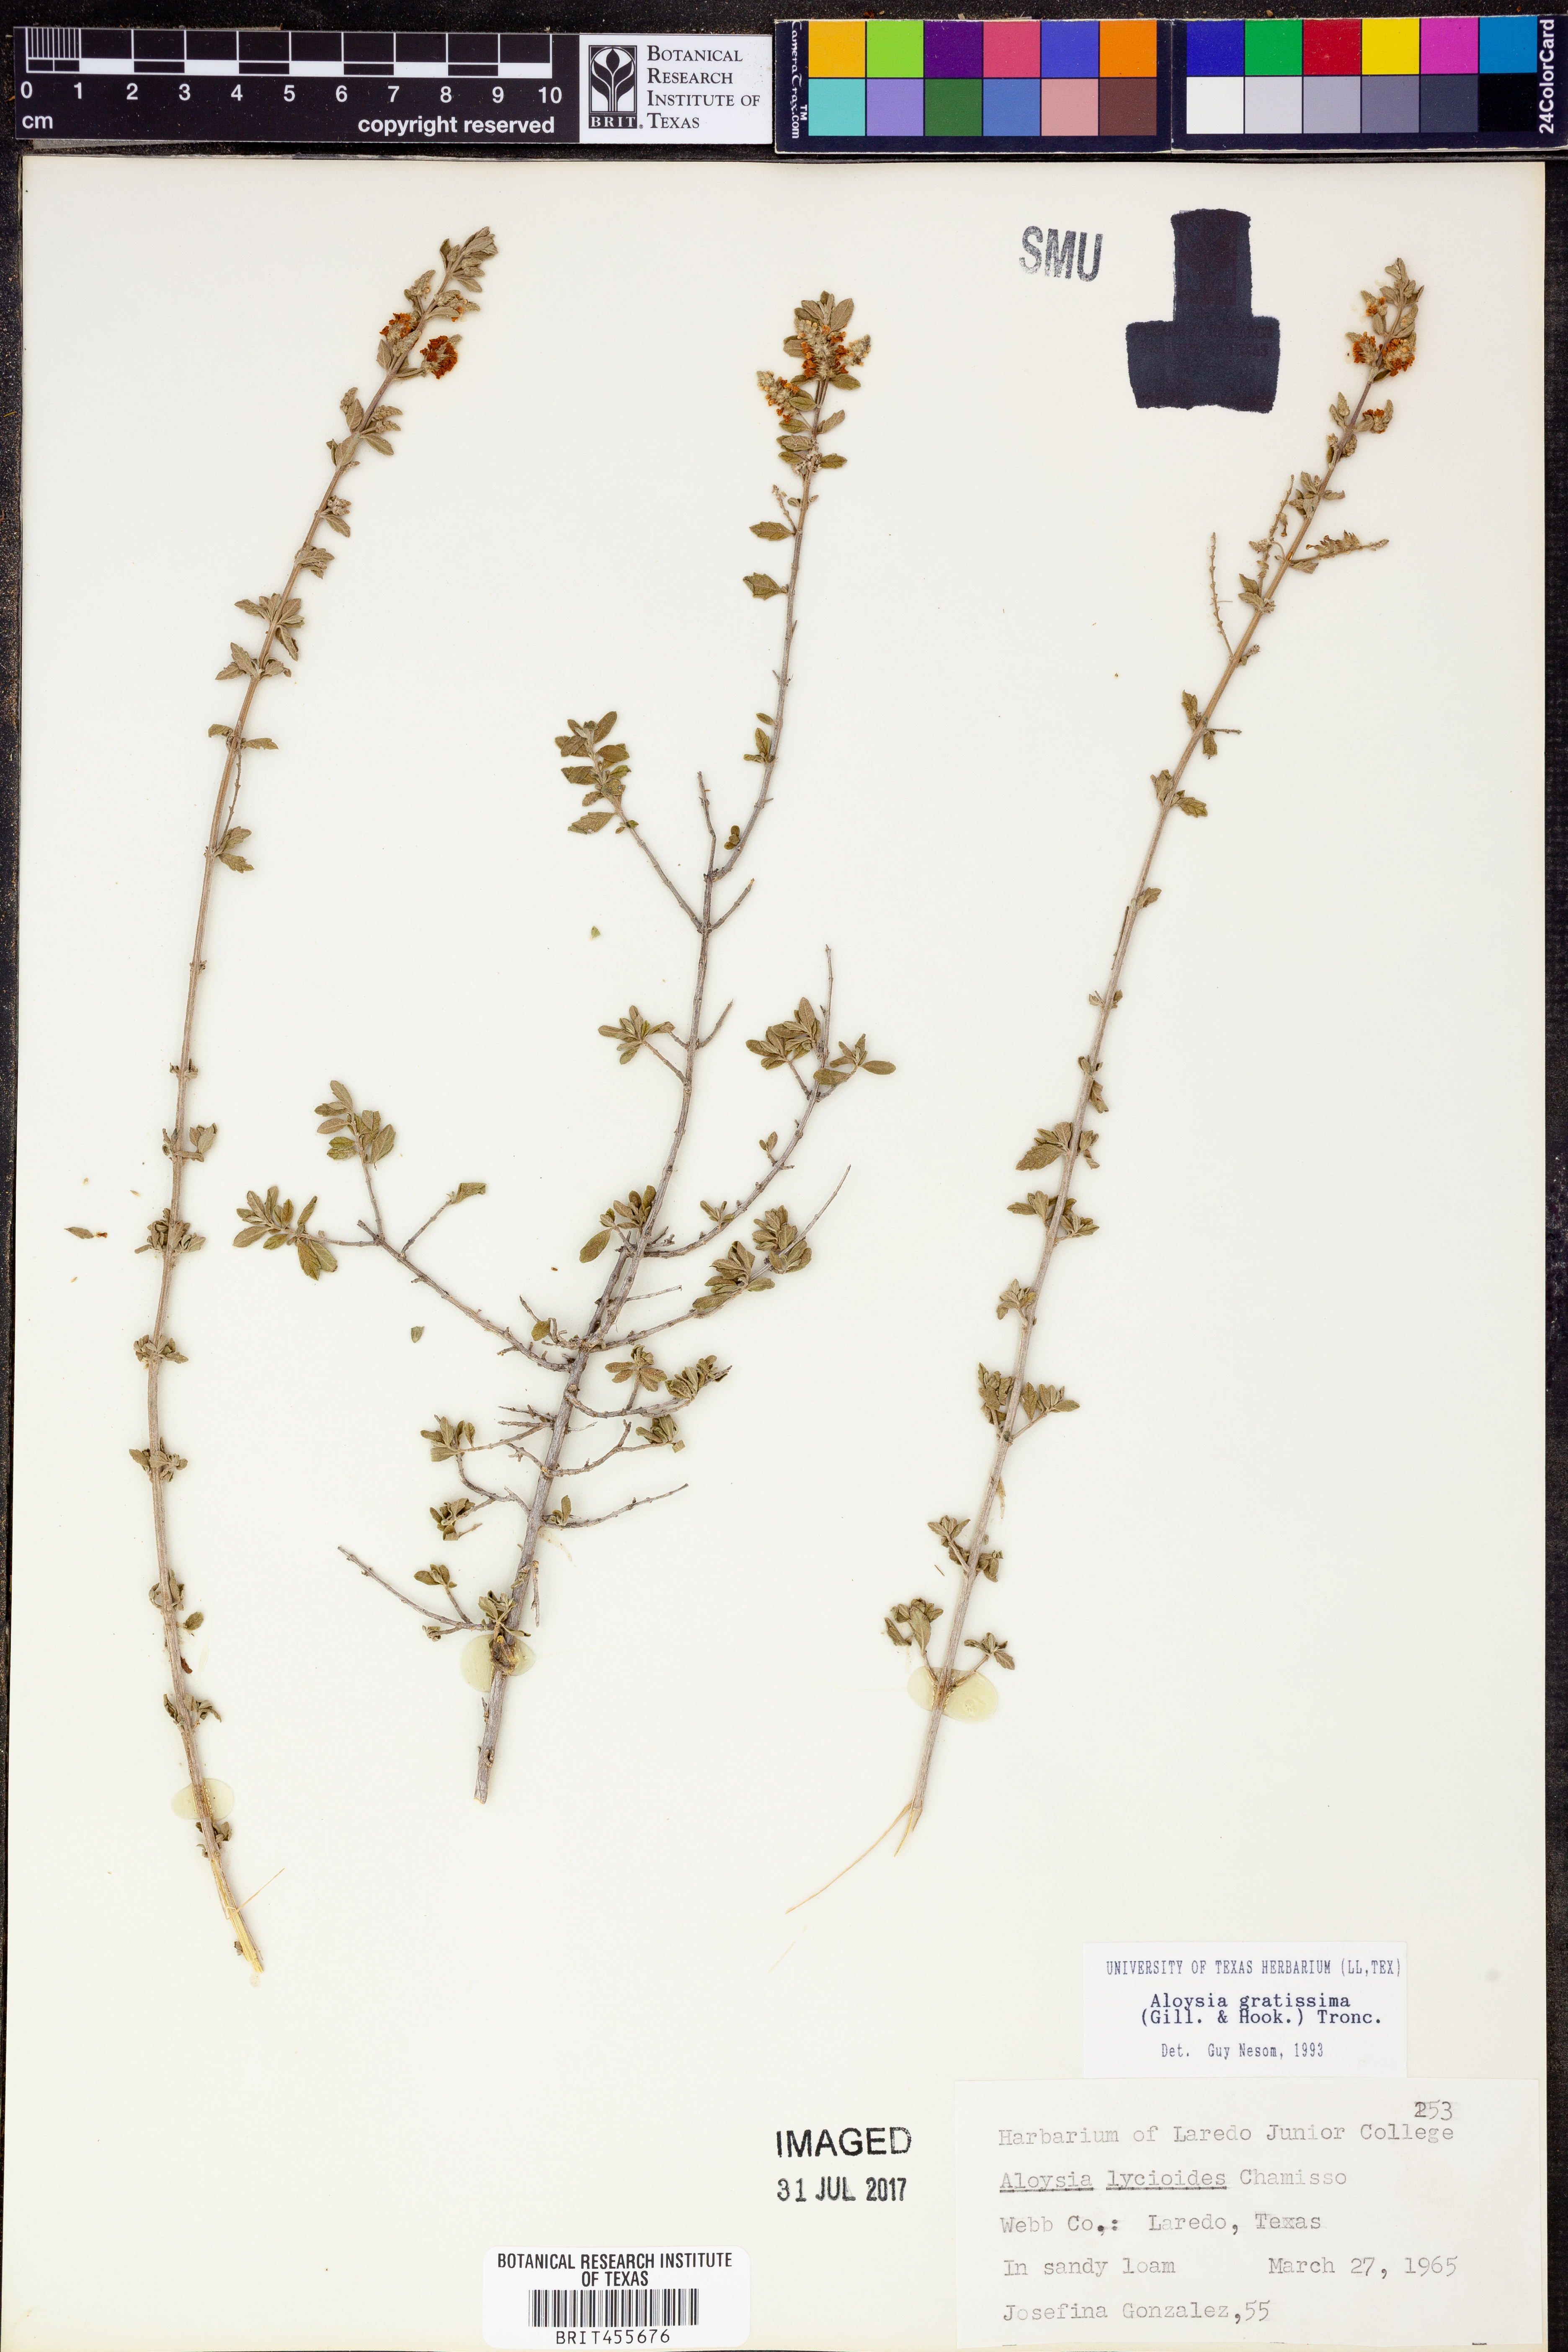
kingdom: Plantae
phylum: Tracheophyta
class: Magnoliopsida
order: Lamiales
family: Verbenaceae
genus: Aloysia
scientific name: Aloysia gratissima
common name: Common bee-brush
